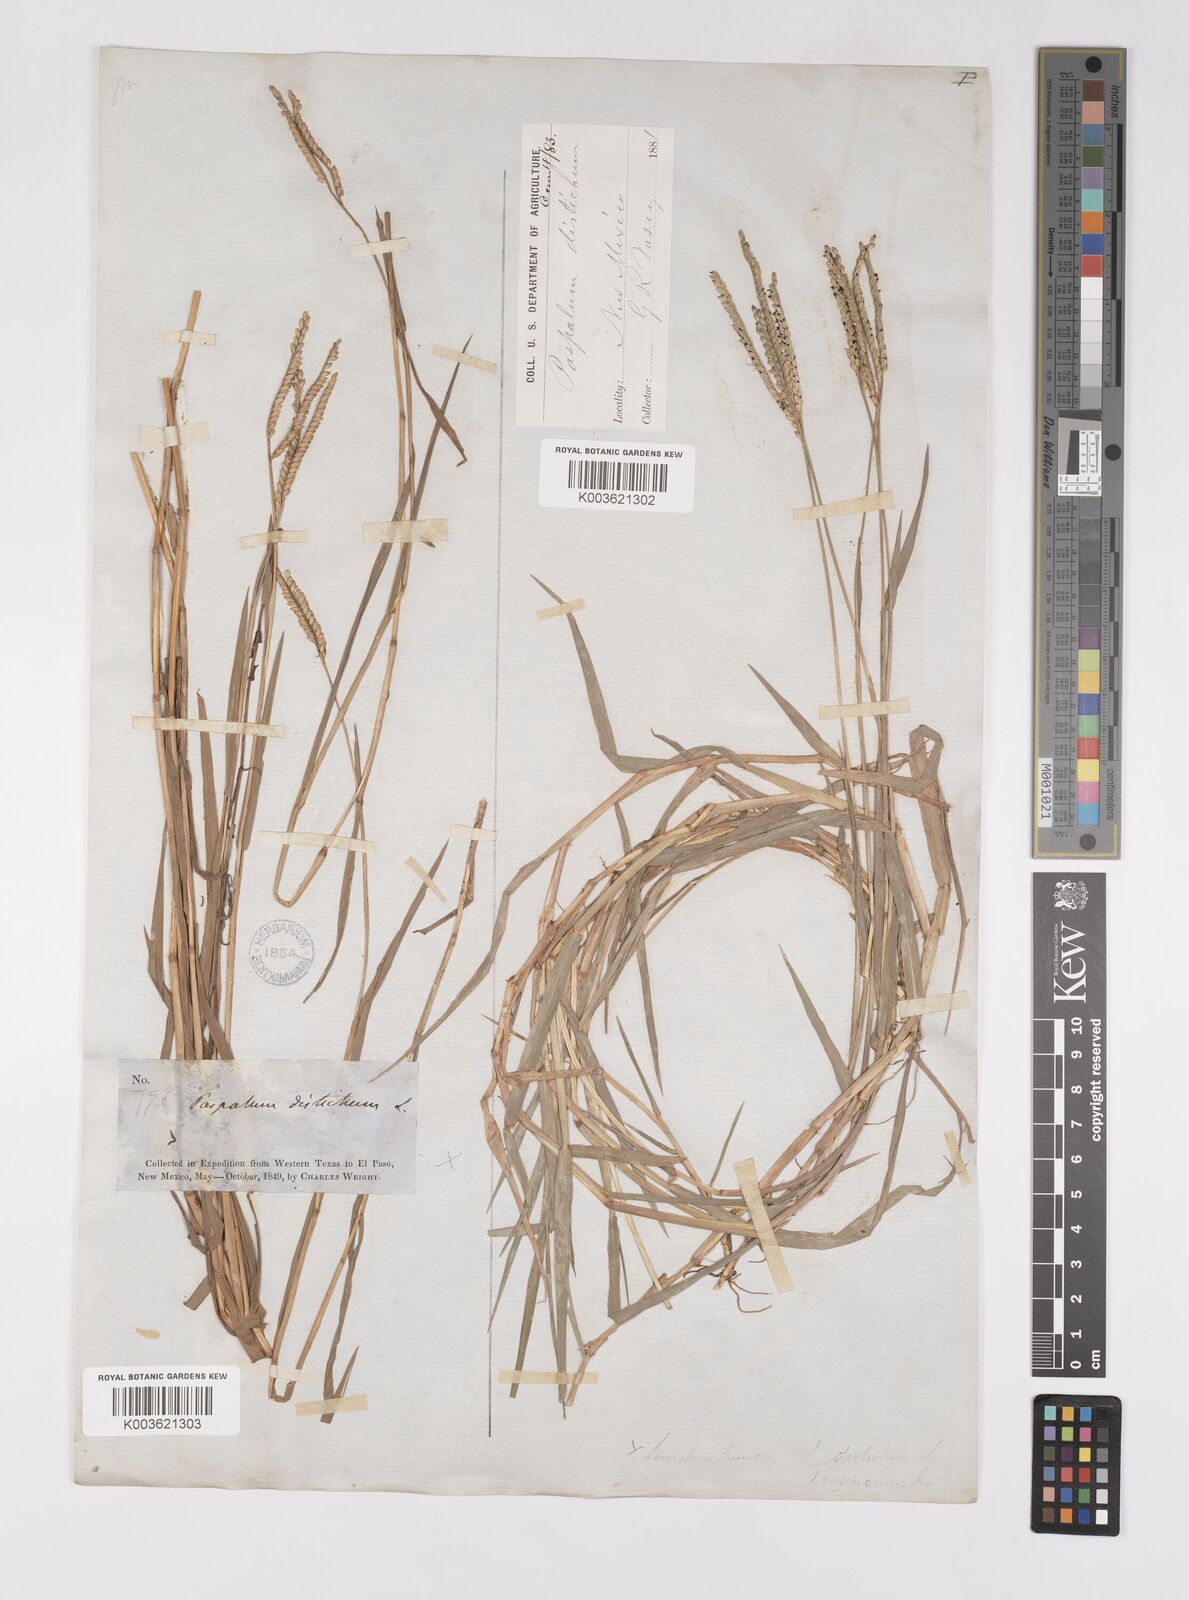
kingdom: Plantae
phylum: Tracheophyta
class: Liliopsida
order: Poales
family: Poaceae
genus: Paspalum
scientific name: Paspalum distichum
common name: Knotgrass
